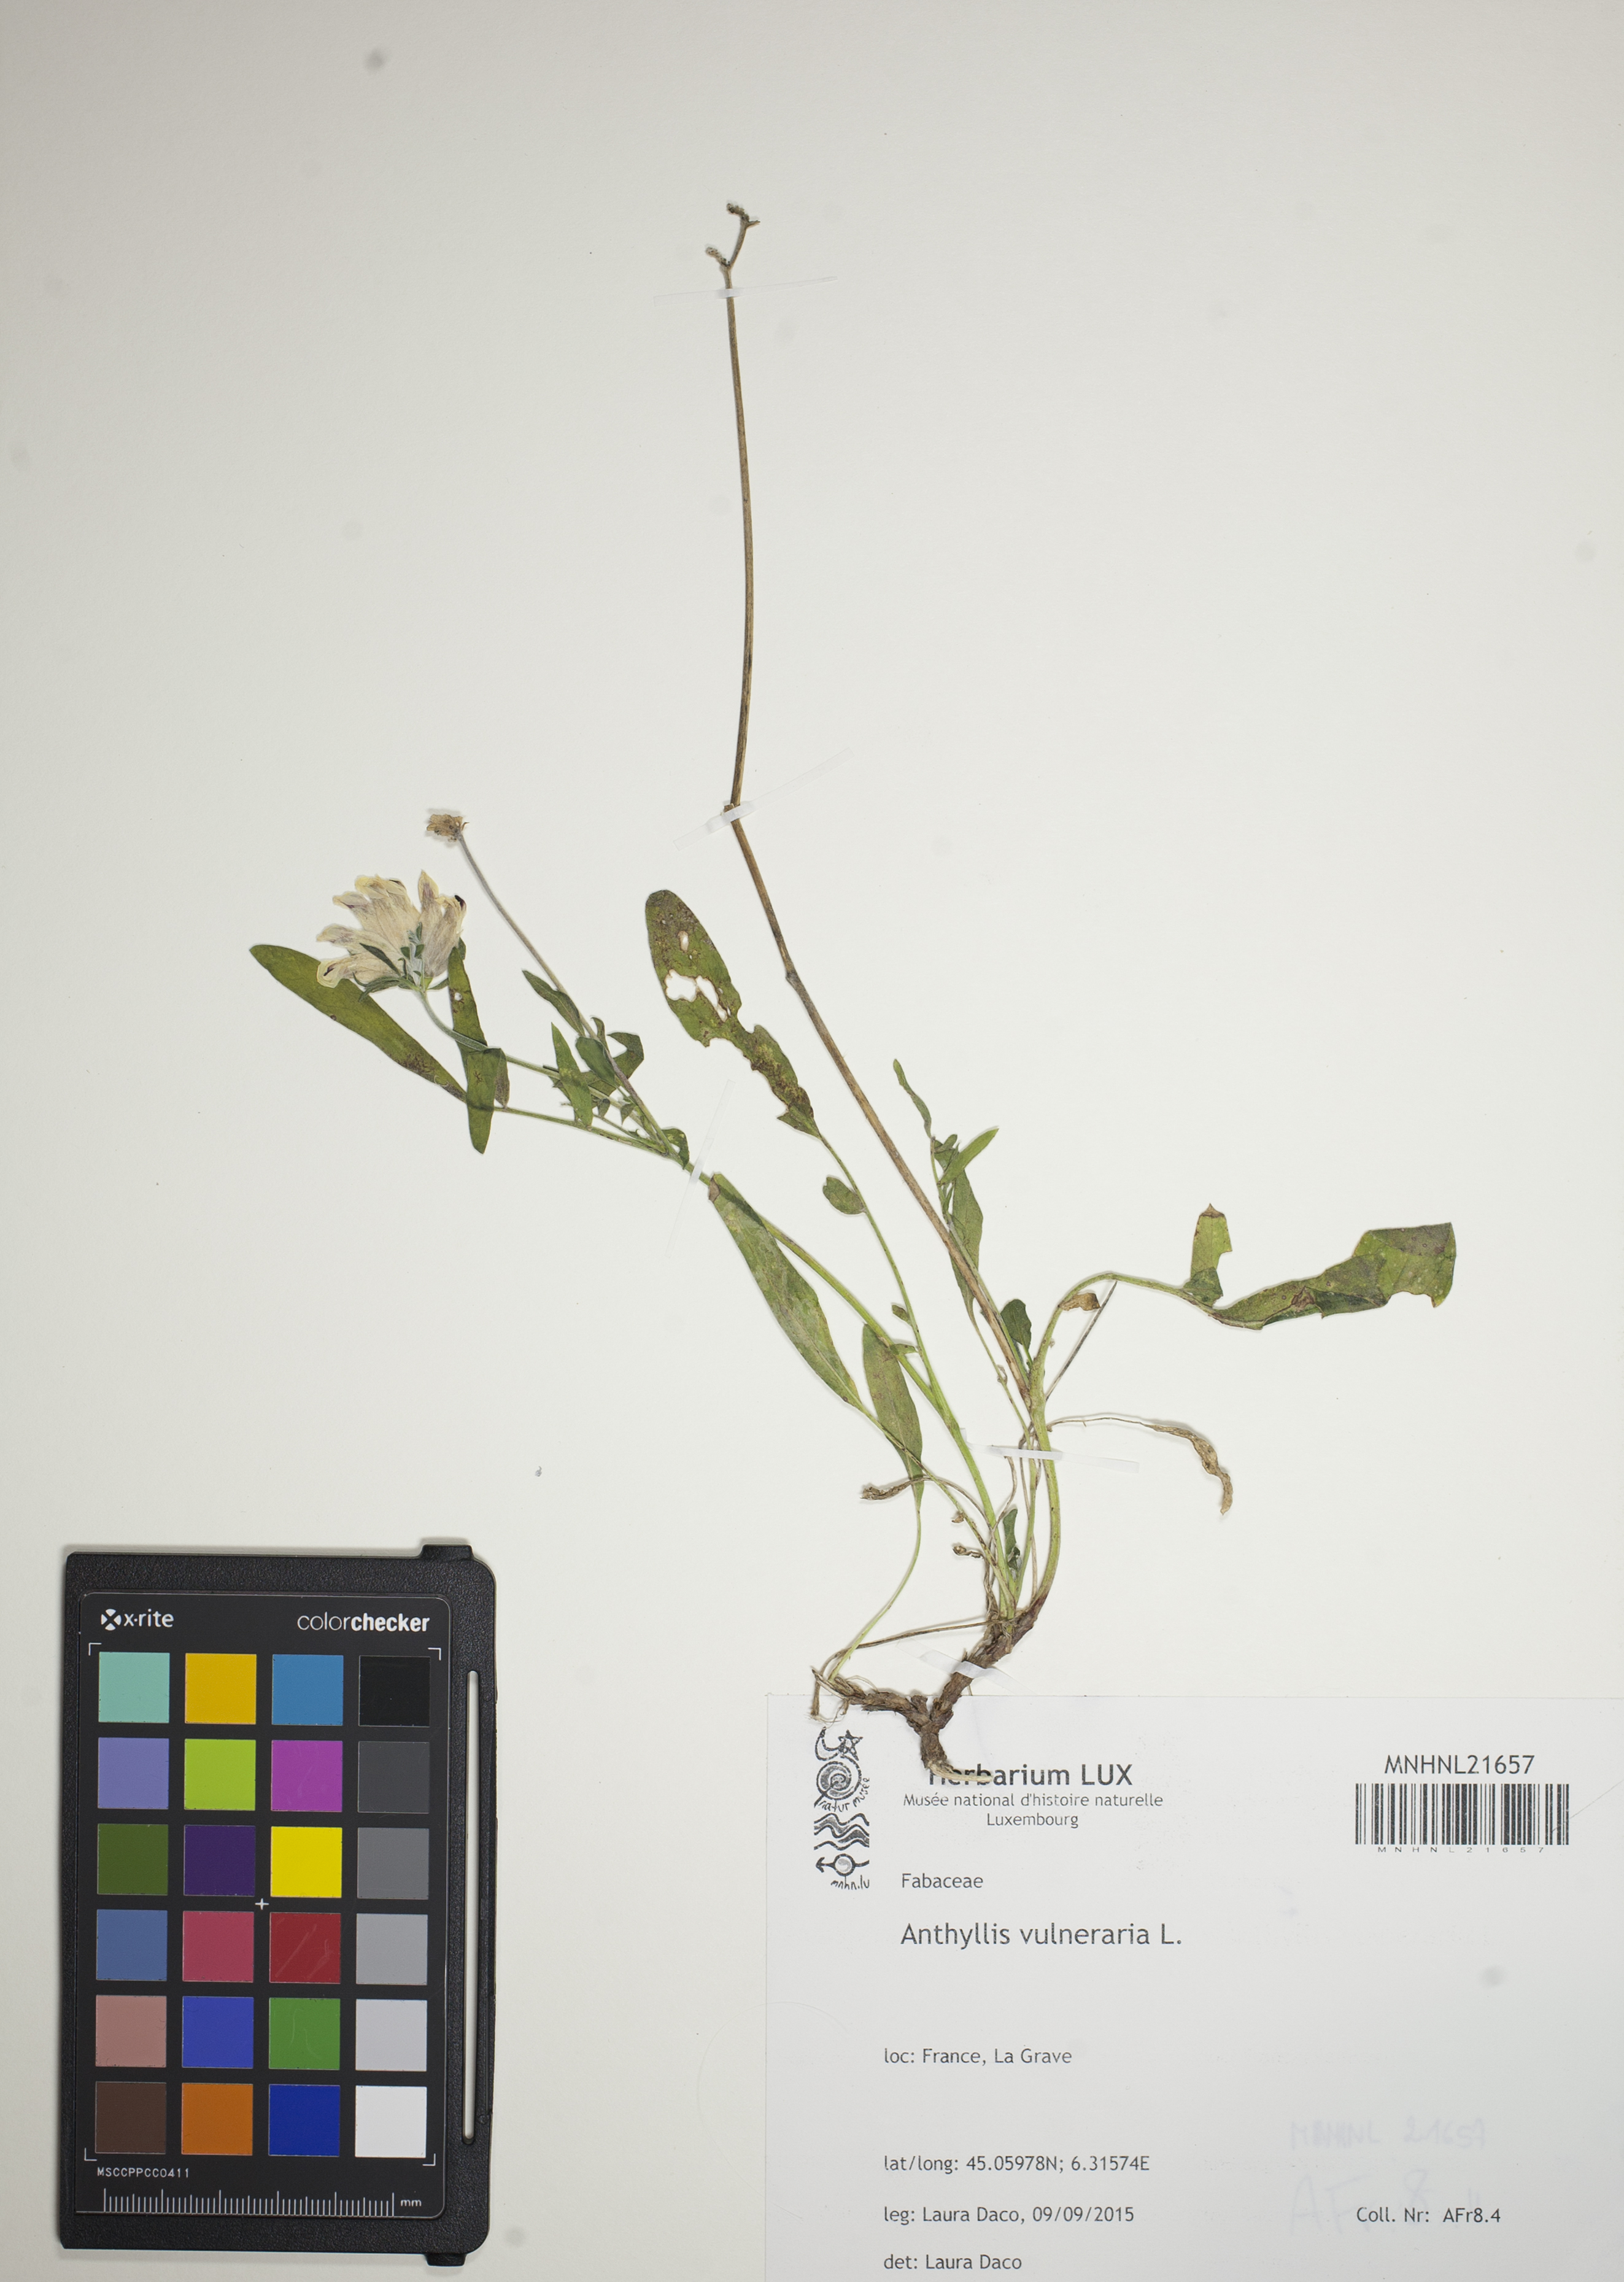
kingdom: Plantae
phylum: Tracheophyta
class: Magnoliopsida
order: Fabales
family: Fabaceae
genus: Anthyllis
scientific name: Anthyllis vulneraria
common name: Kidney vetch
